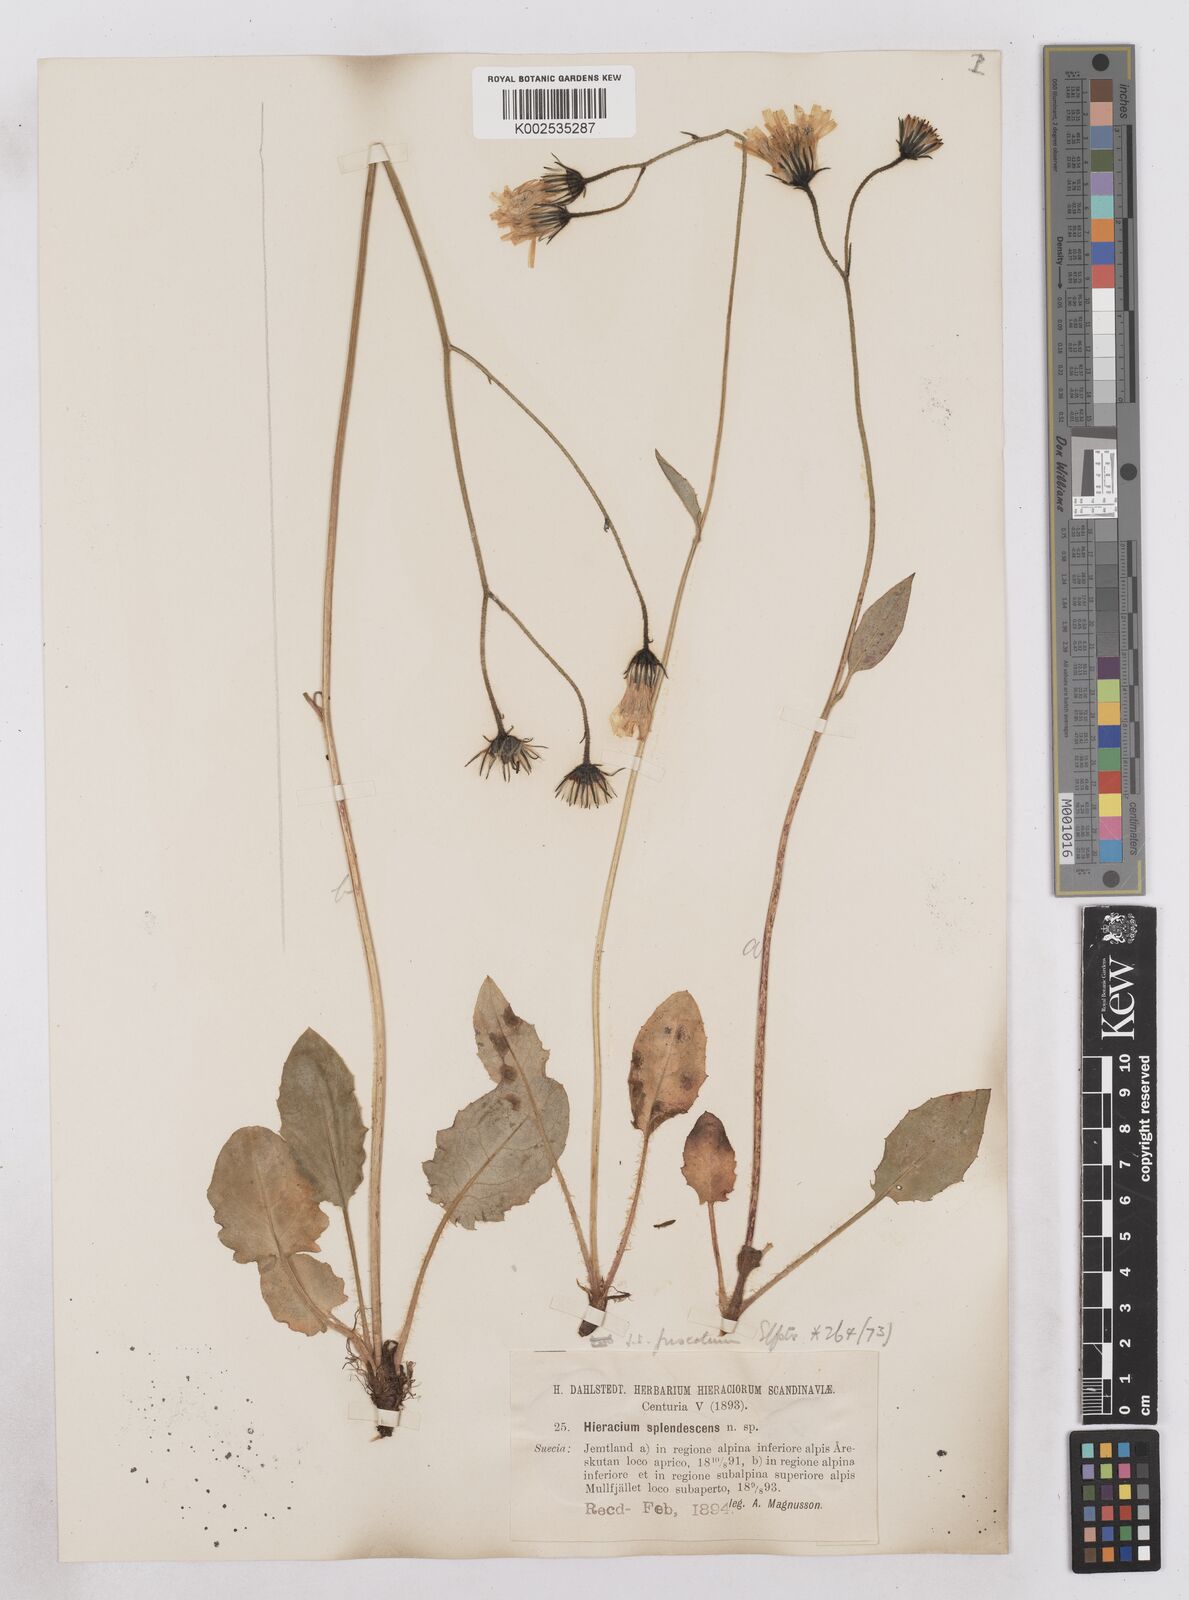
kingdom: Plantae
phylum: Tracheophyta
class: Magnoliopsida
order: Asterales
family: Asteraceae
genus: Hieracium
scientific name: Hieracium atratum
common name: Polar hawkweed
